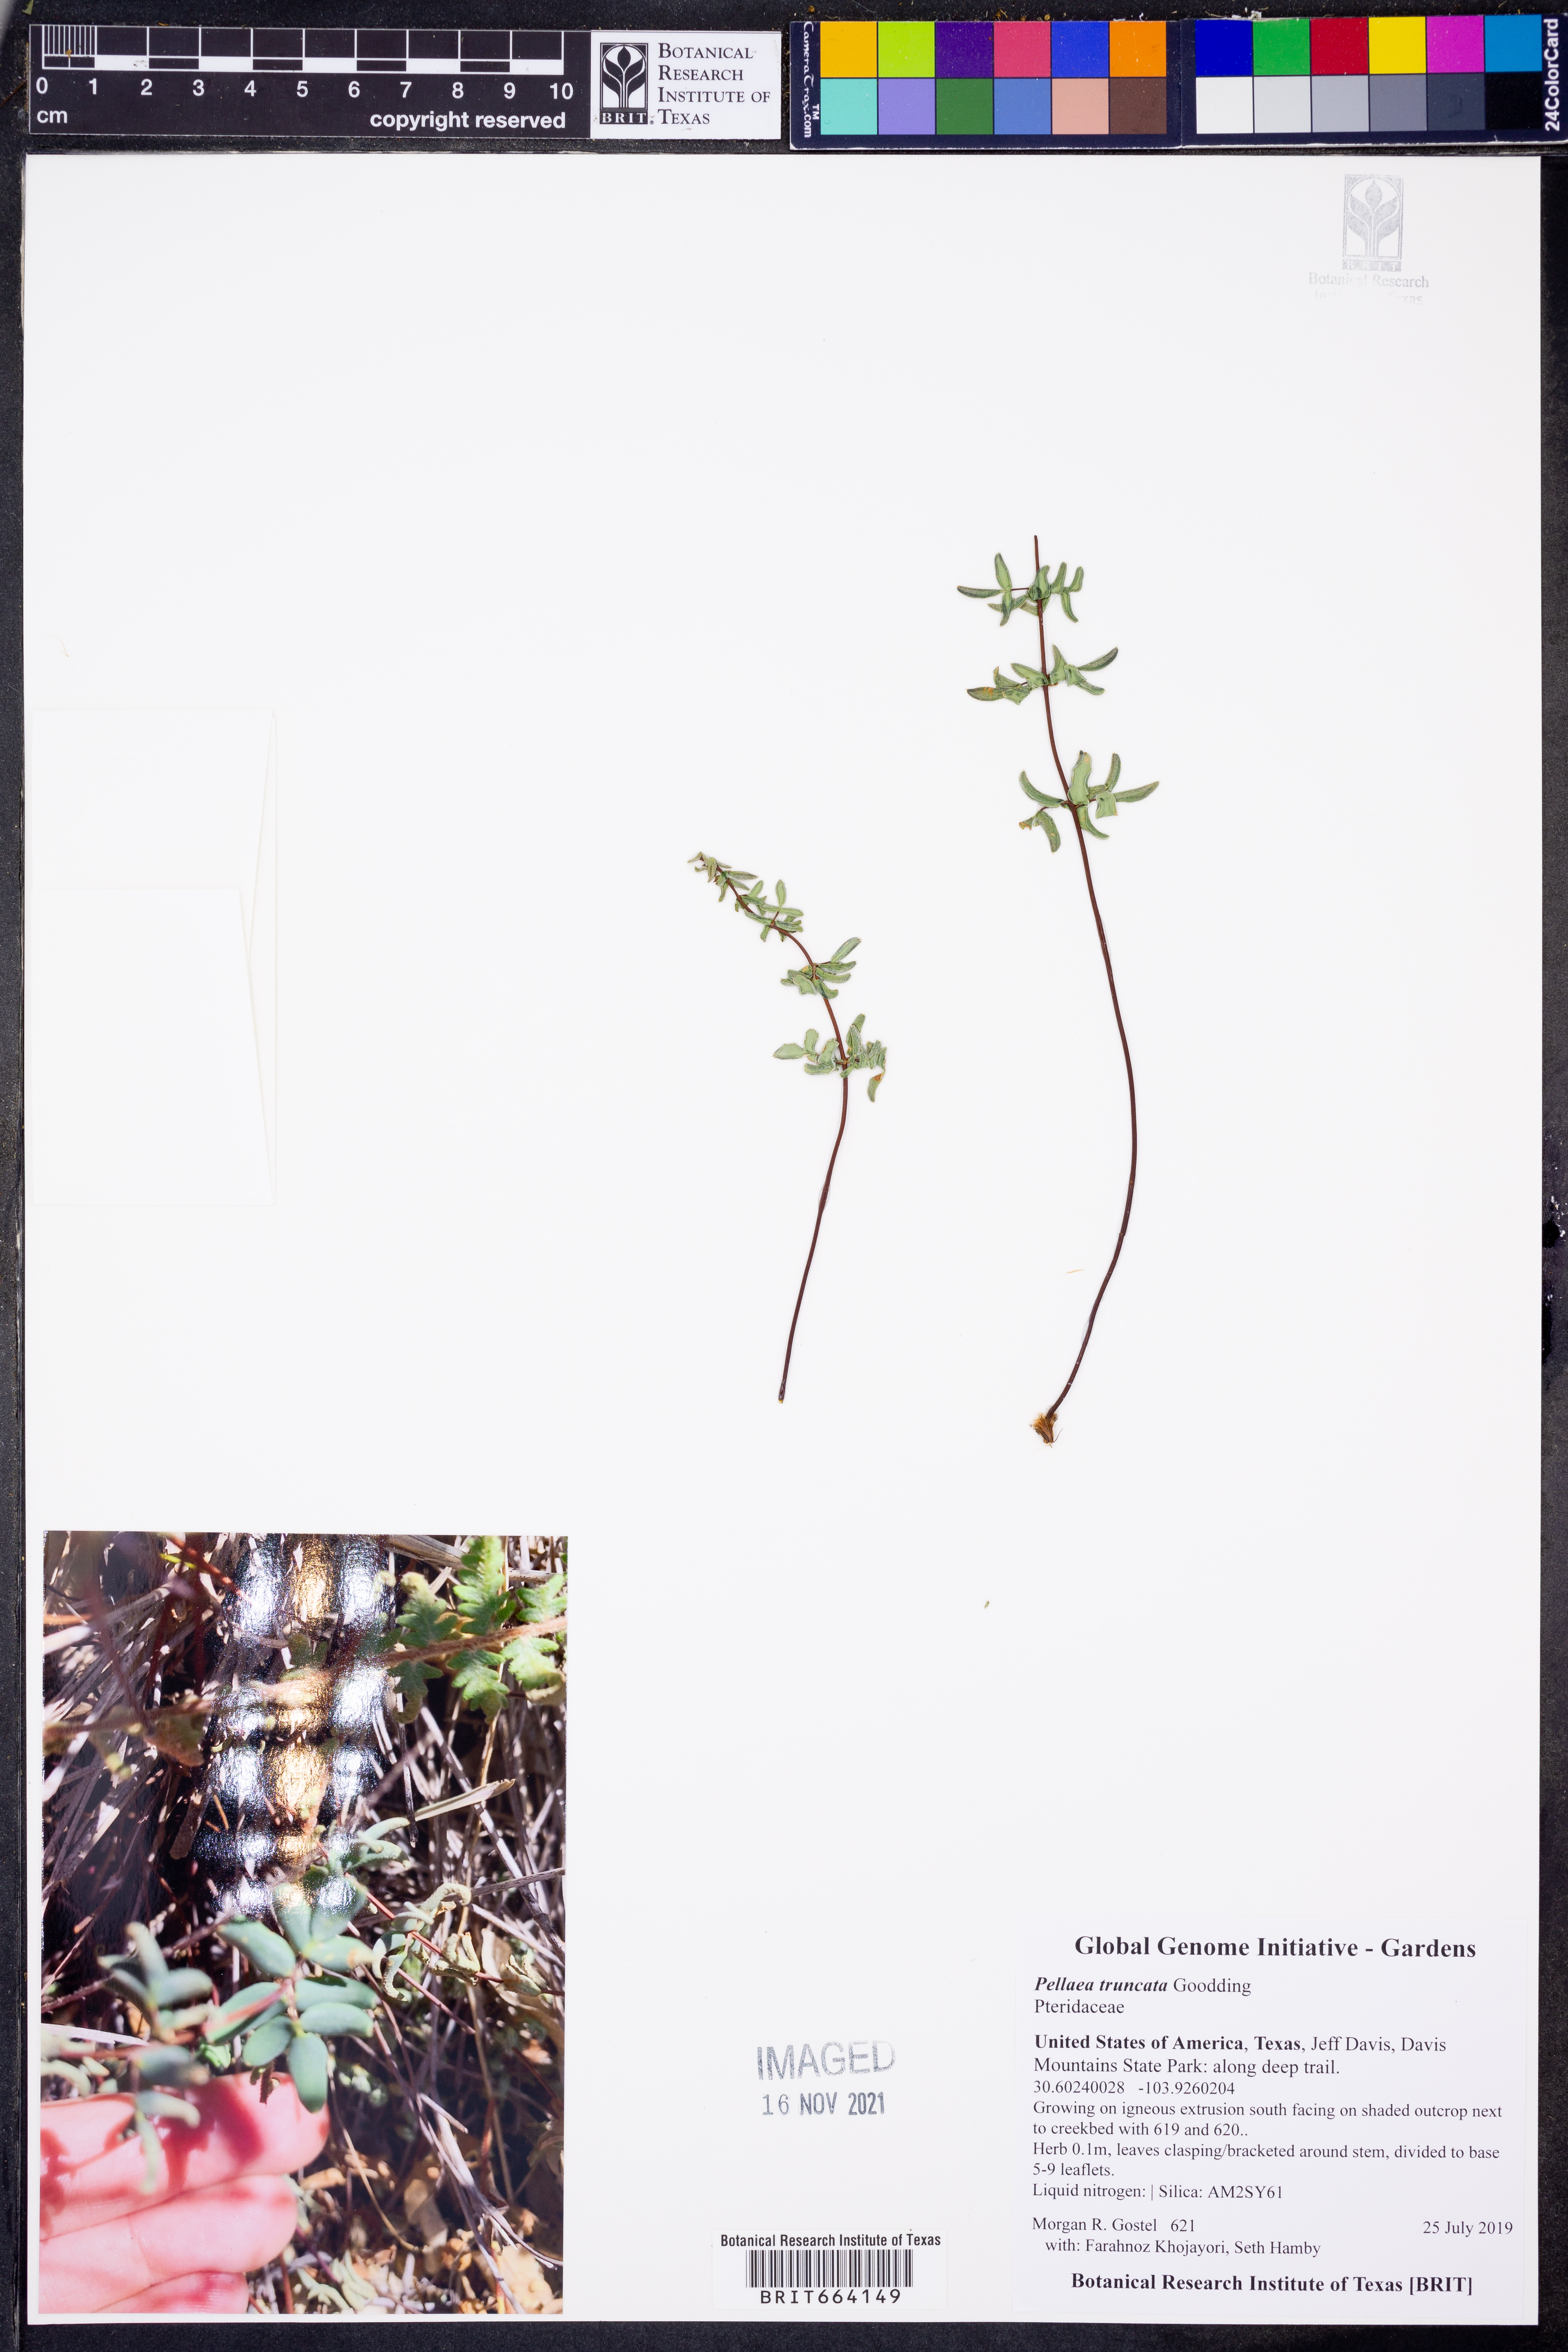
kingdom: Plantae
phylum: Tracheophyta
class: Polypodiopsida
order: Polypodiales
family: Pteridaceae
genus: Pellaea
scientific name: Pellaea truncata
